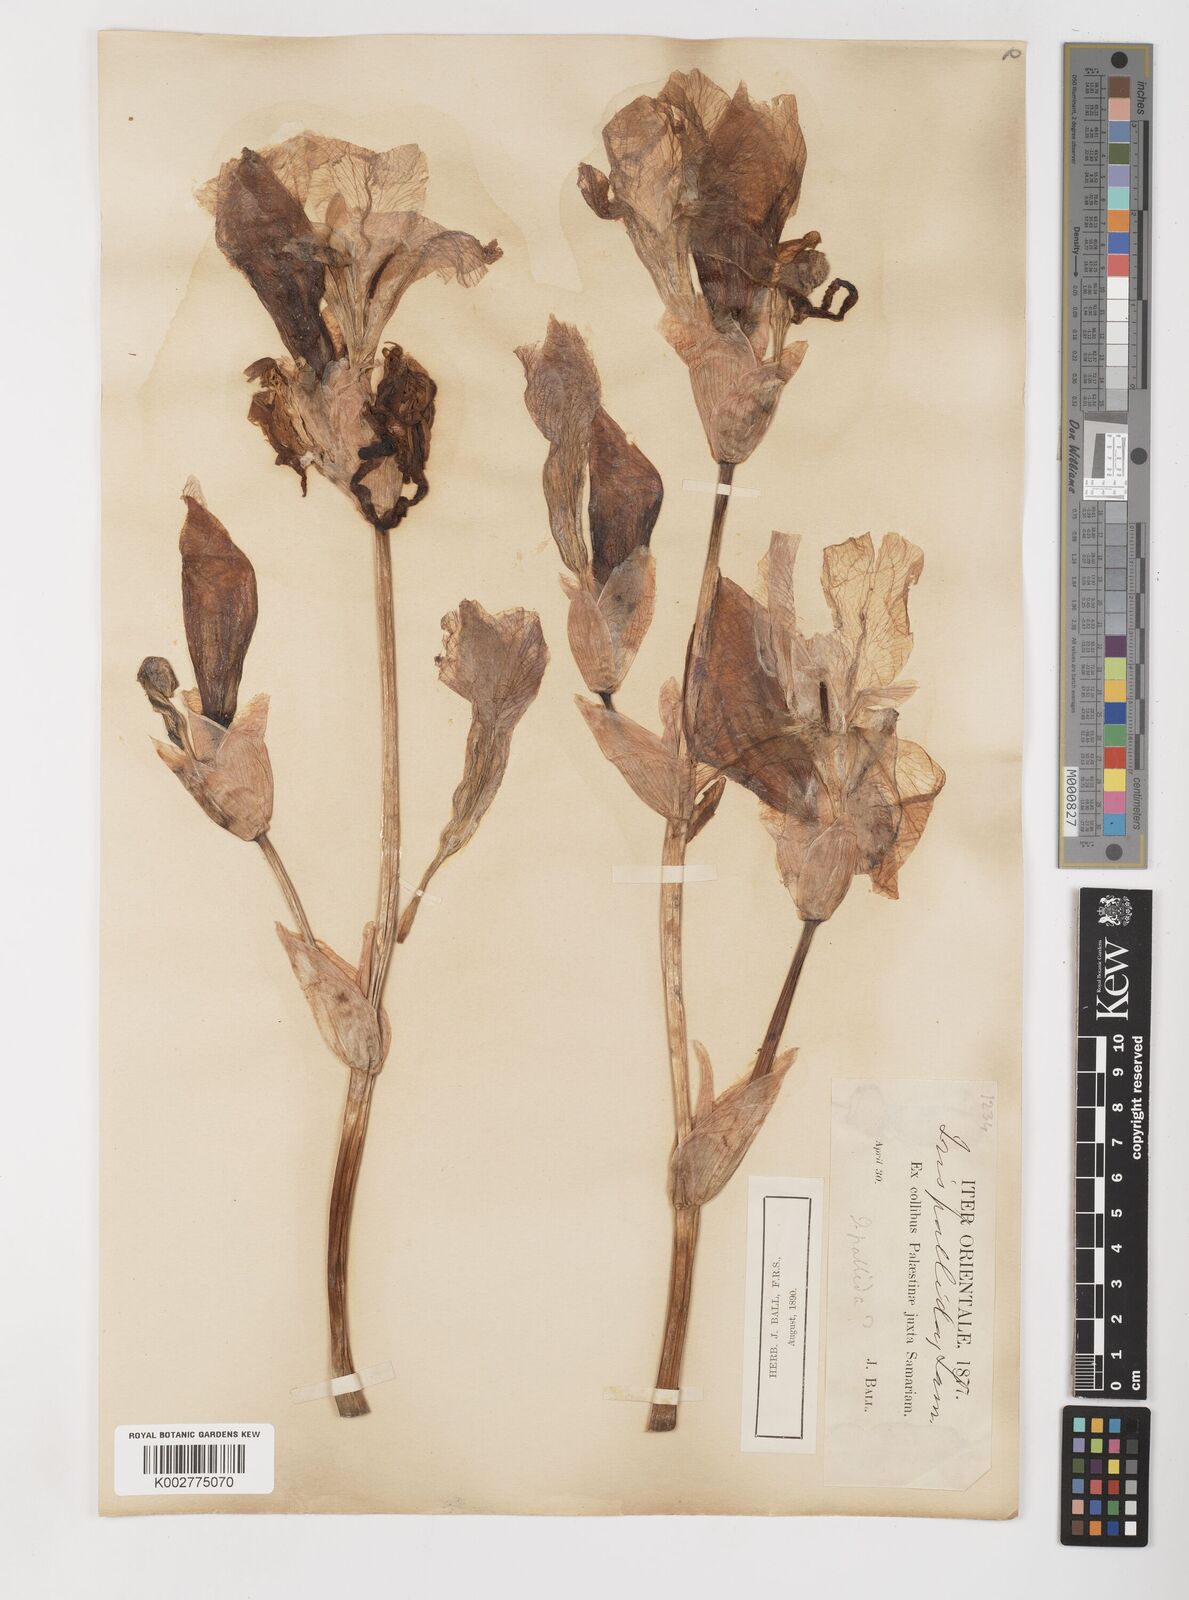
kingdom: Plantae
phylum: Tracheophyta
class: Liliopsida
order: Asparagales
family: Iridaceae
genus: Iris
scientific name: Iris germanica
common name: German iris
